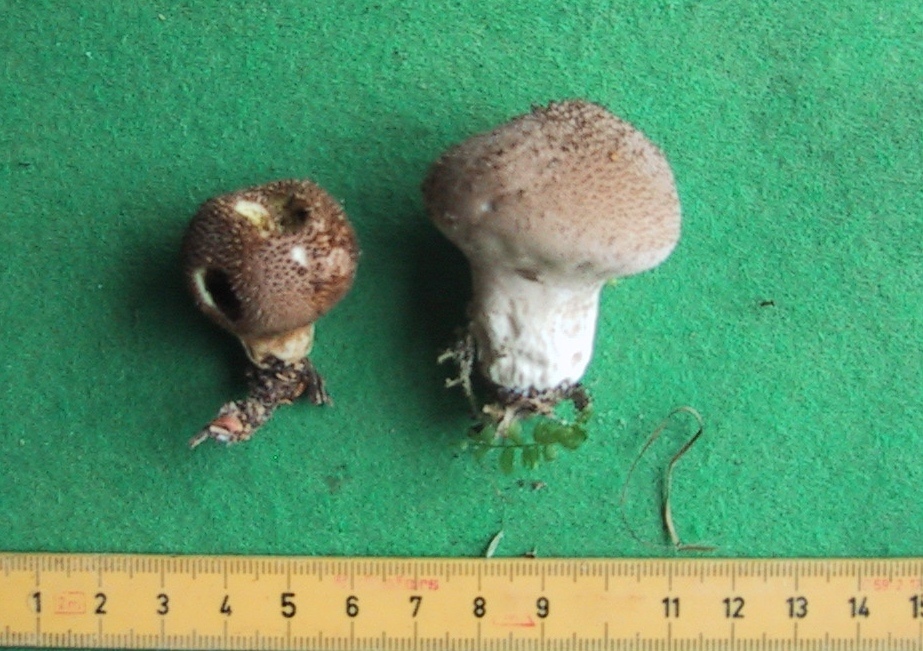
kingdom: Fungi
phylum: Basidiomycota
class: Agaricomycetes
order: Agaricales
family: Lycoperdaceae
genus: Lycoperdon
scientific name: Lycoperdon nigrescens
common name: sortagtig støvbold
